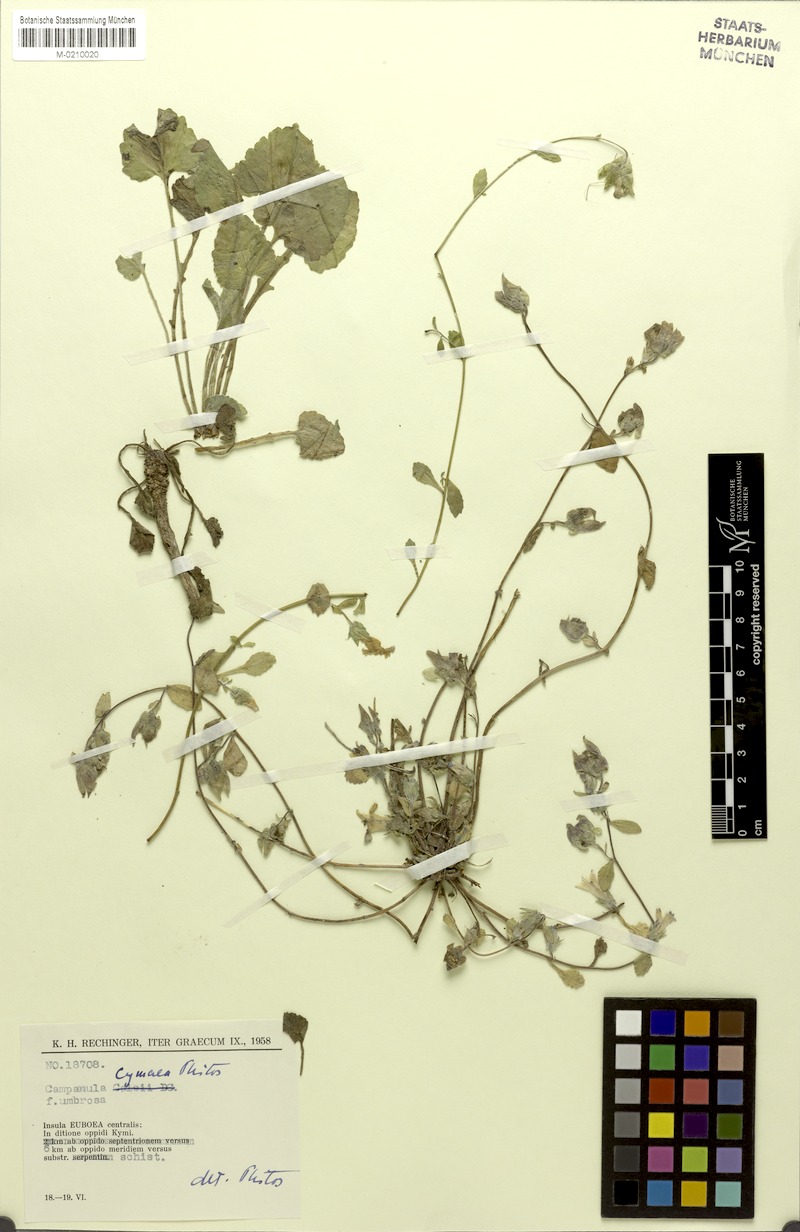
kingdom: Plantae
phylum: Tracheophyta
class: Magnoliopsida
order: Asterales
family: Campanulaceae
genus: Campanula
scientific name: Campanula cymaea
